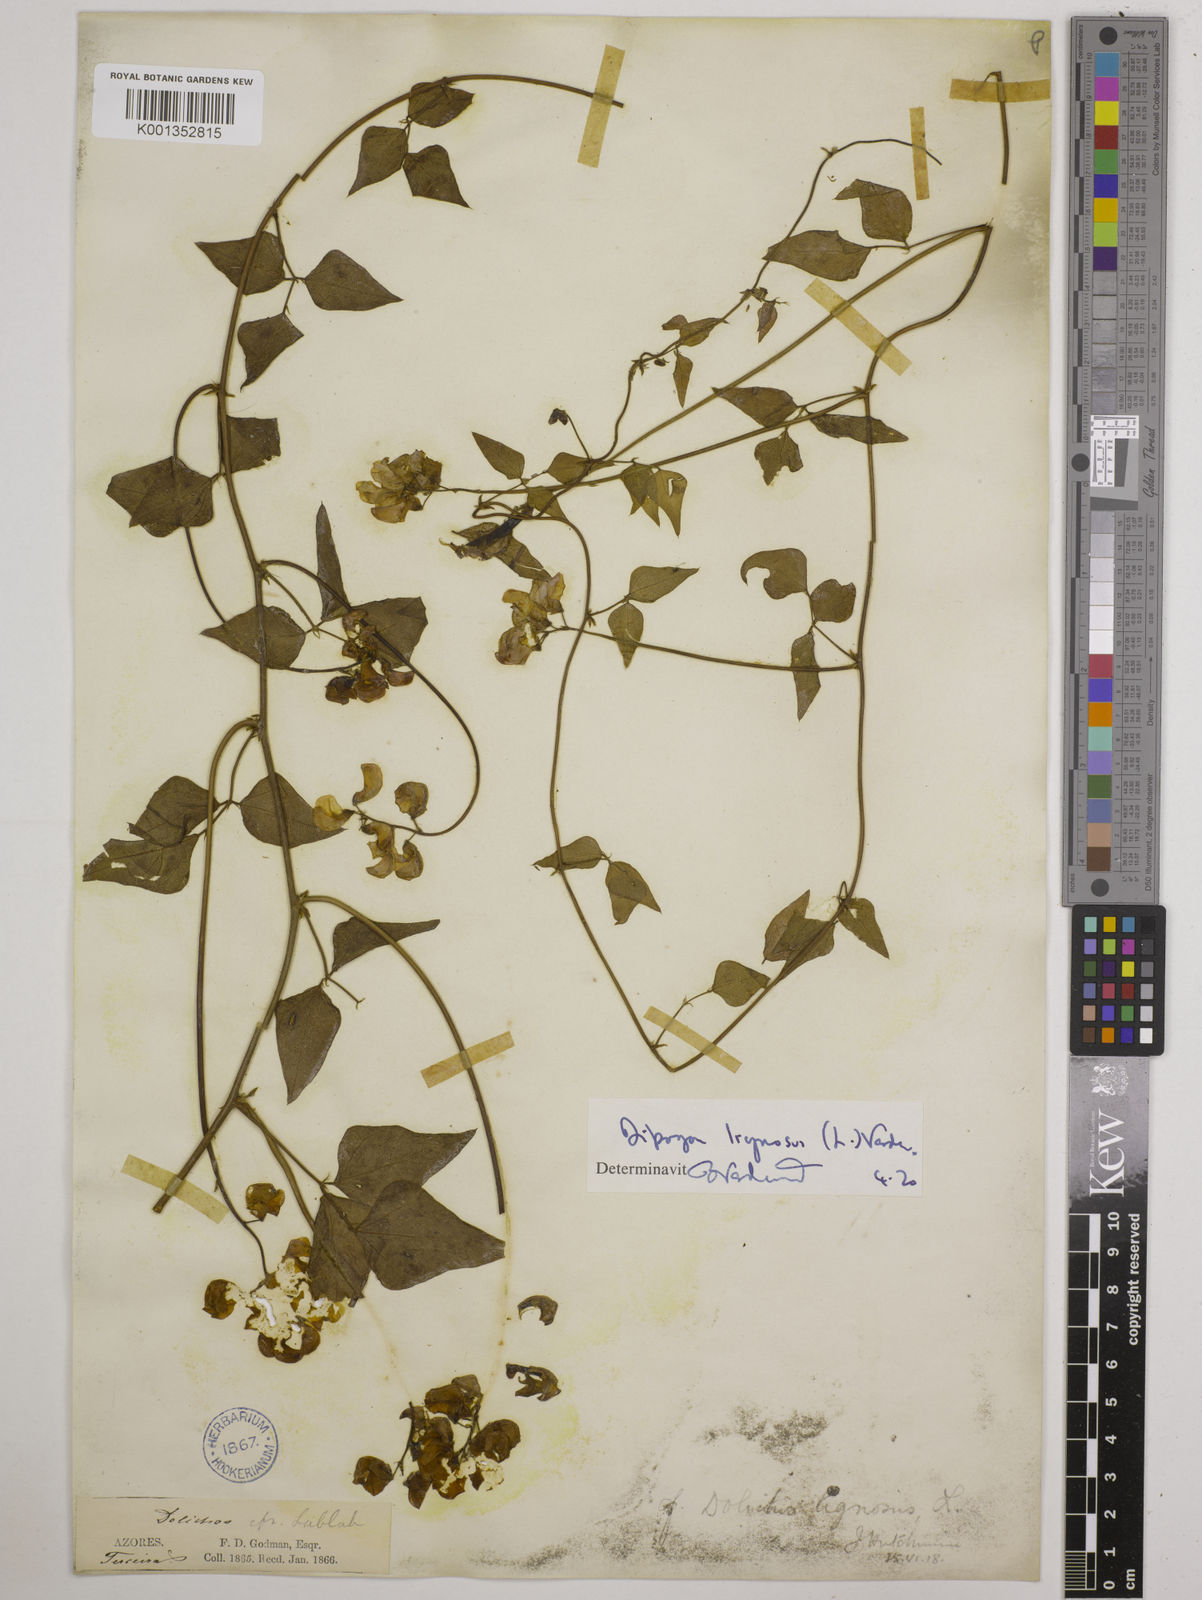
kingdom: Plantae
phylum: Tracheophyta
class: Magnoliopsida
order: Fabales
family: Fabaceae
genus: Dipogon
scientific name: Dipogon lignosus
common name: Okie bean
